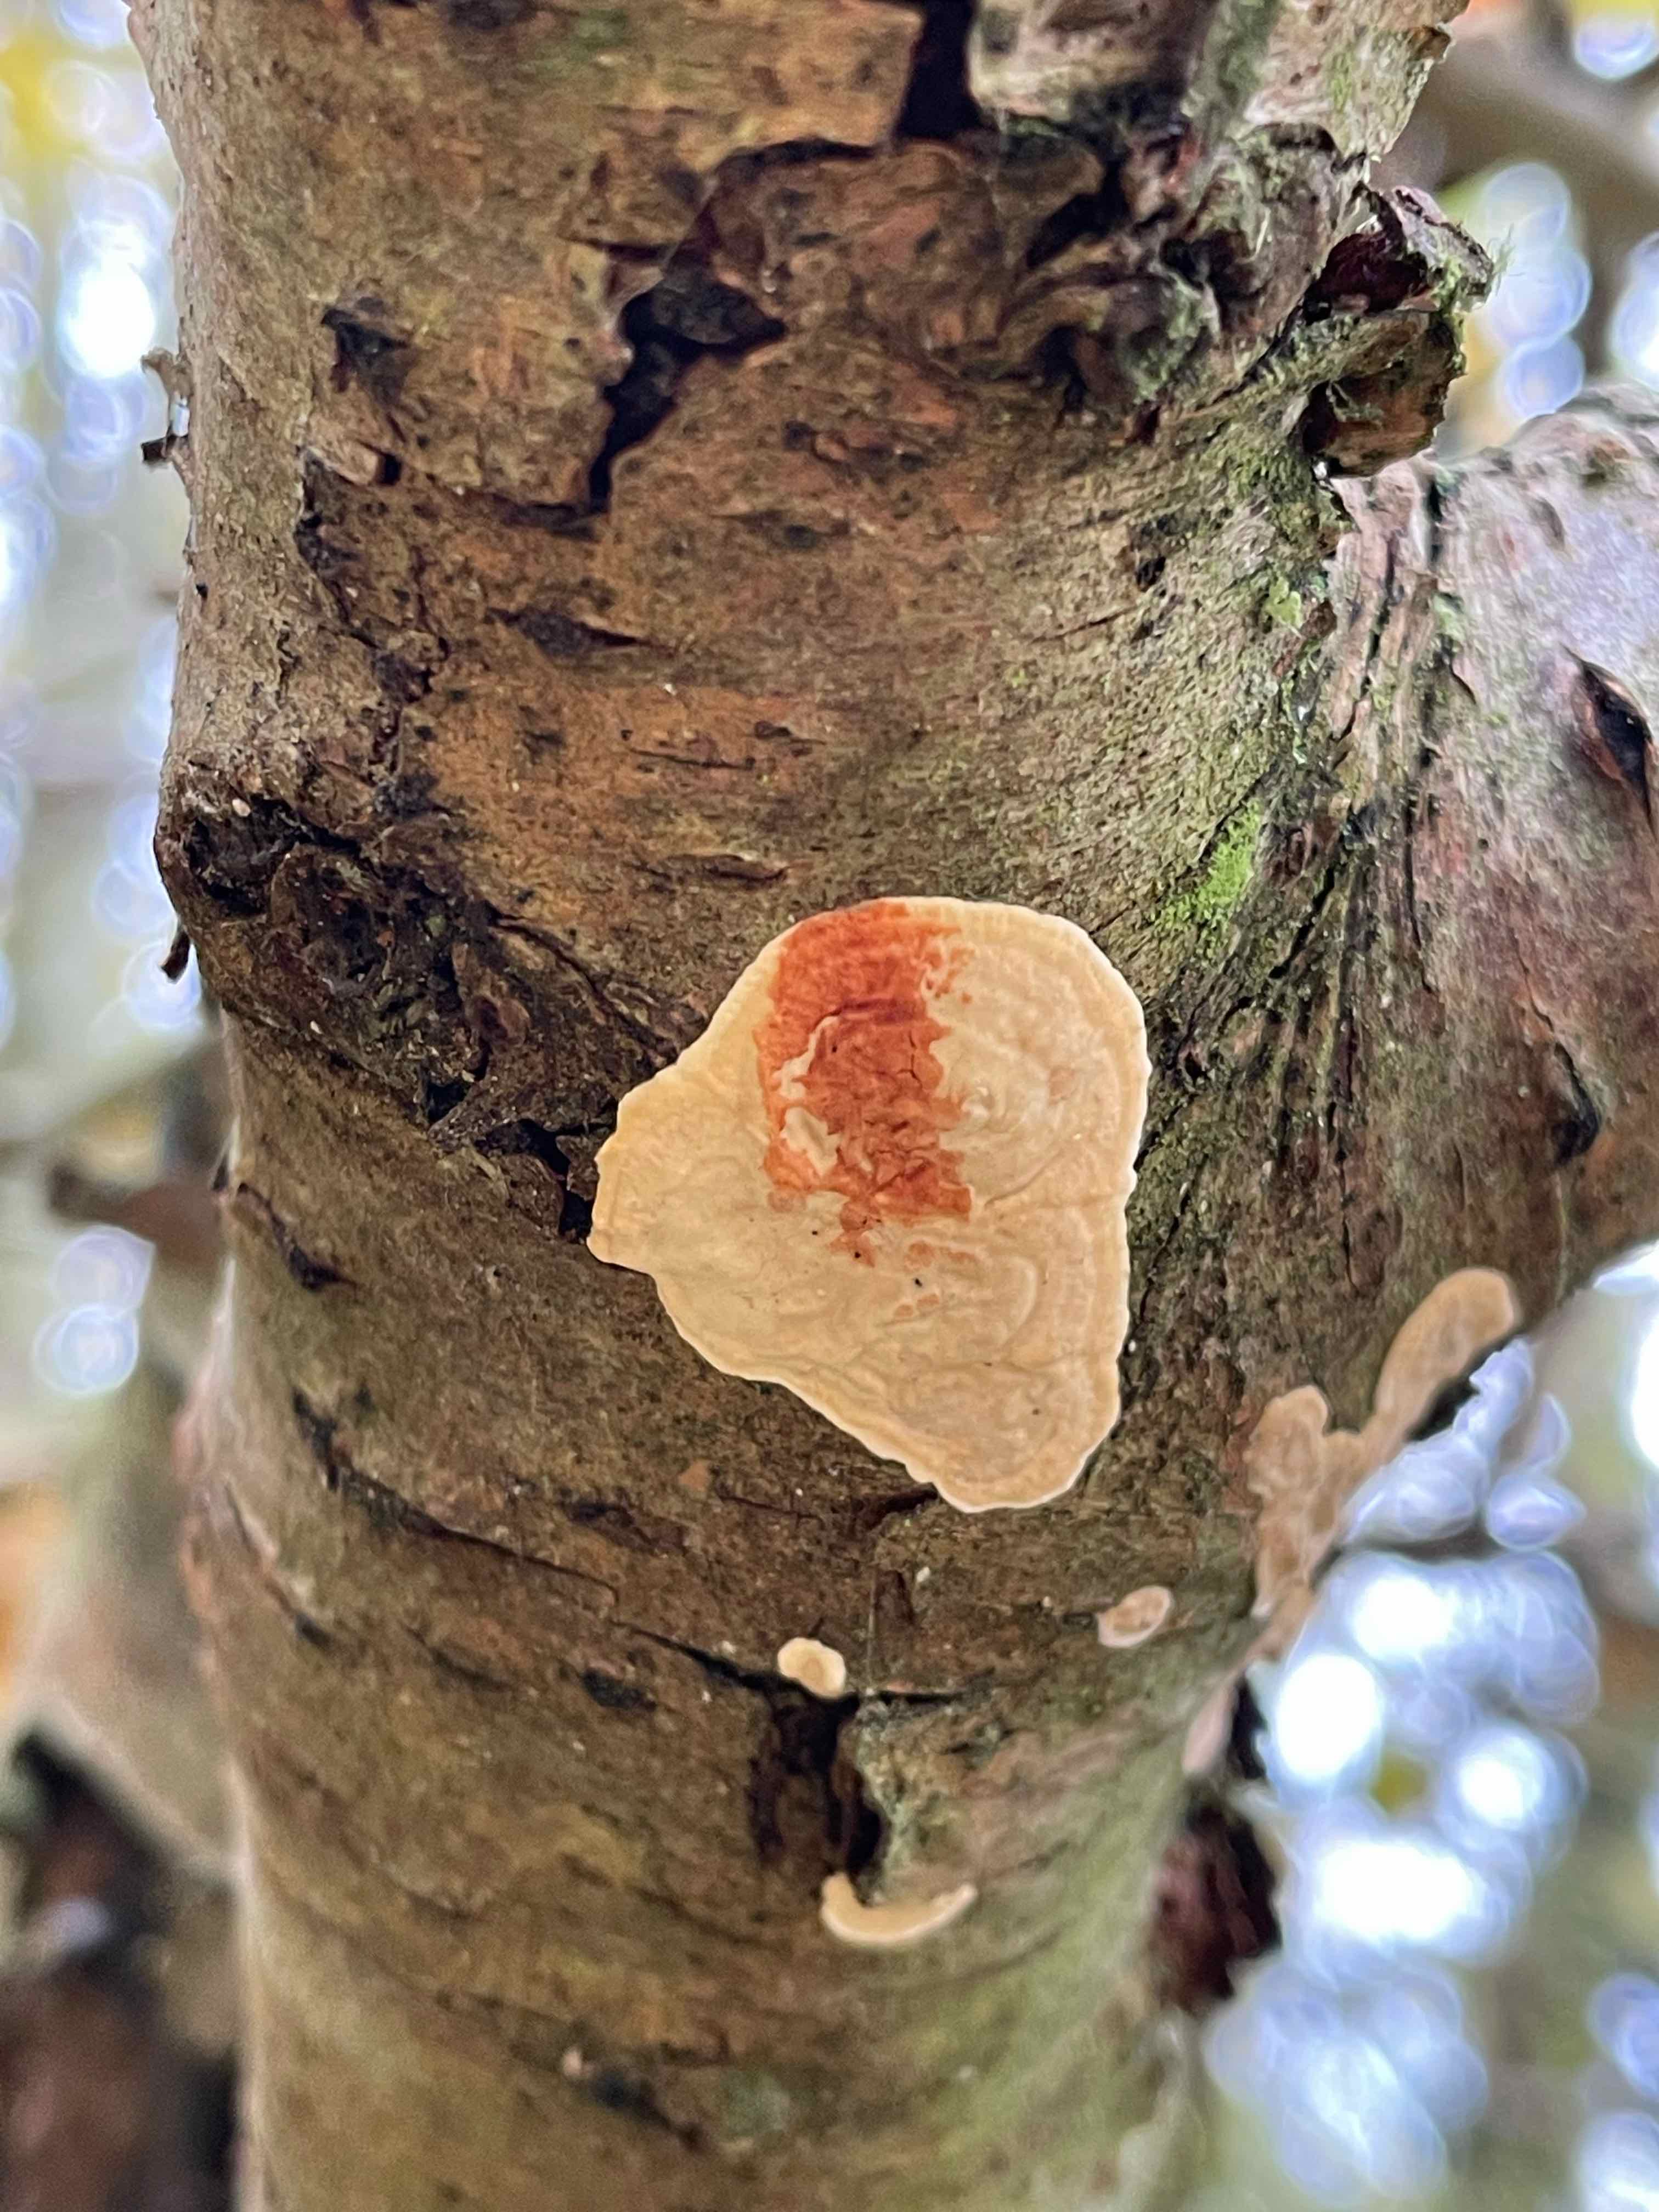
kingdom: Fungi
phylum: Basidiomycota
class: Agaricomycetes
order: Russulales
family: Stereaceae
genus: Stereum
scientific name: Stereum rugosum
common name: rynket lædersvamp
